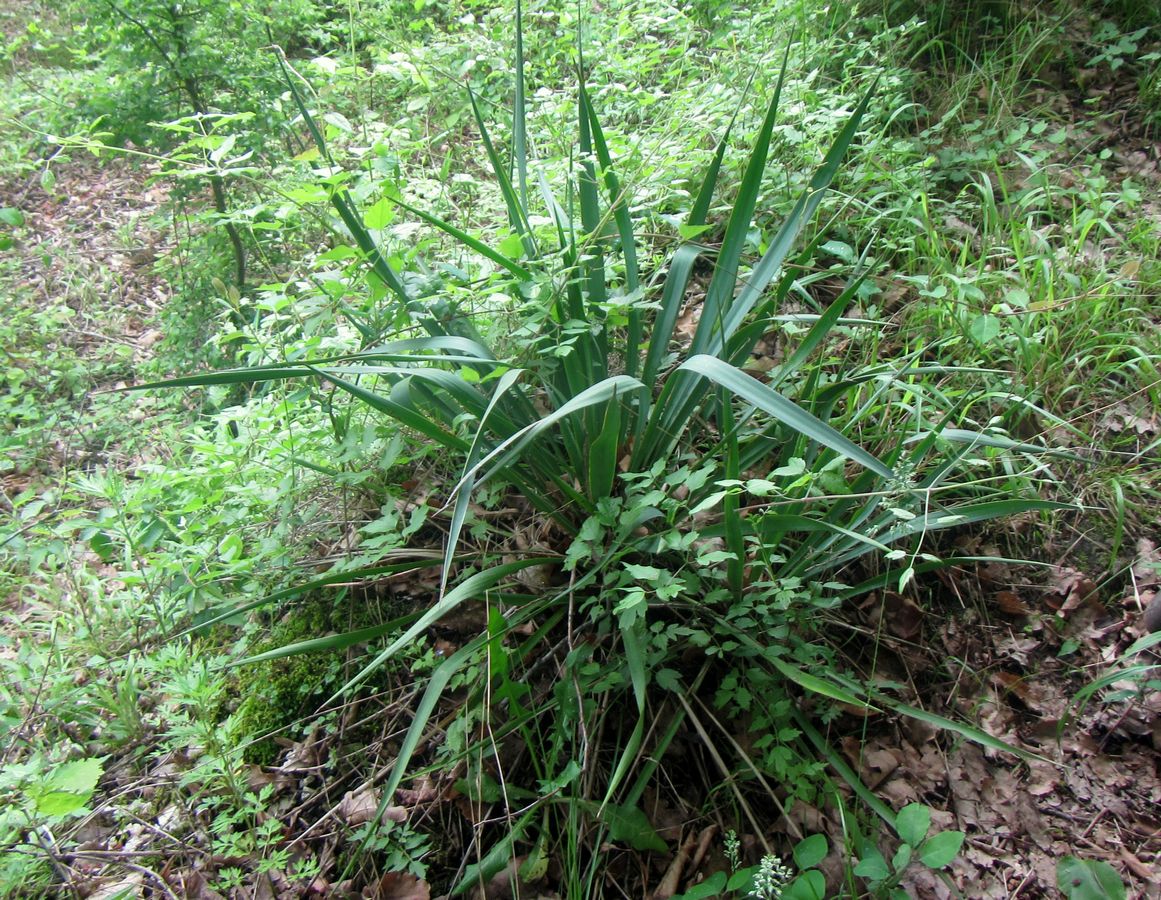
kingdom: Plantae
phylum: Tracheophyta
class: Liliopsida
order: Asparagales
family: Asparagaceae
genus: Yucca
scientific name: Yucca
